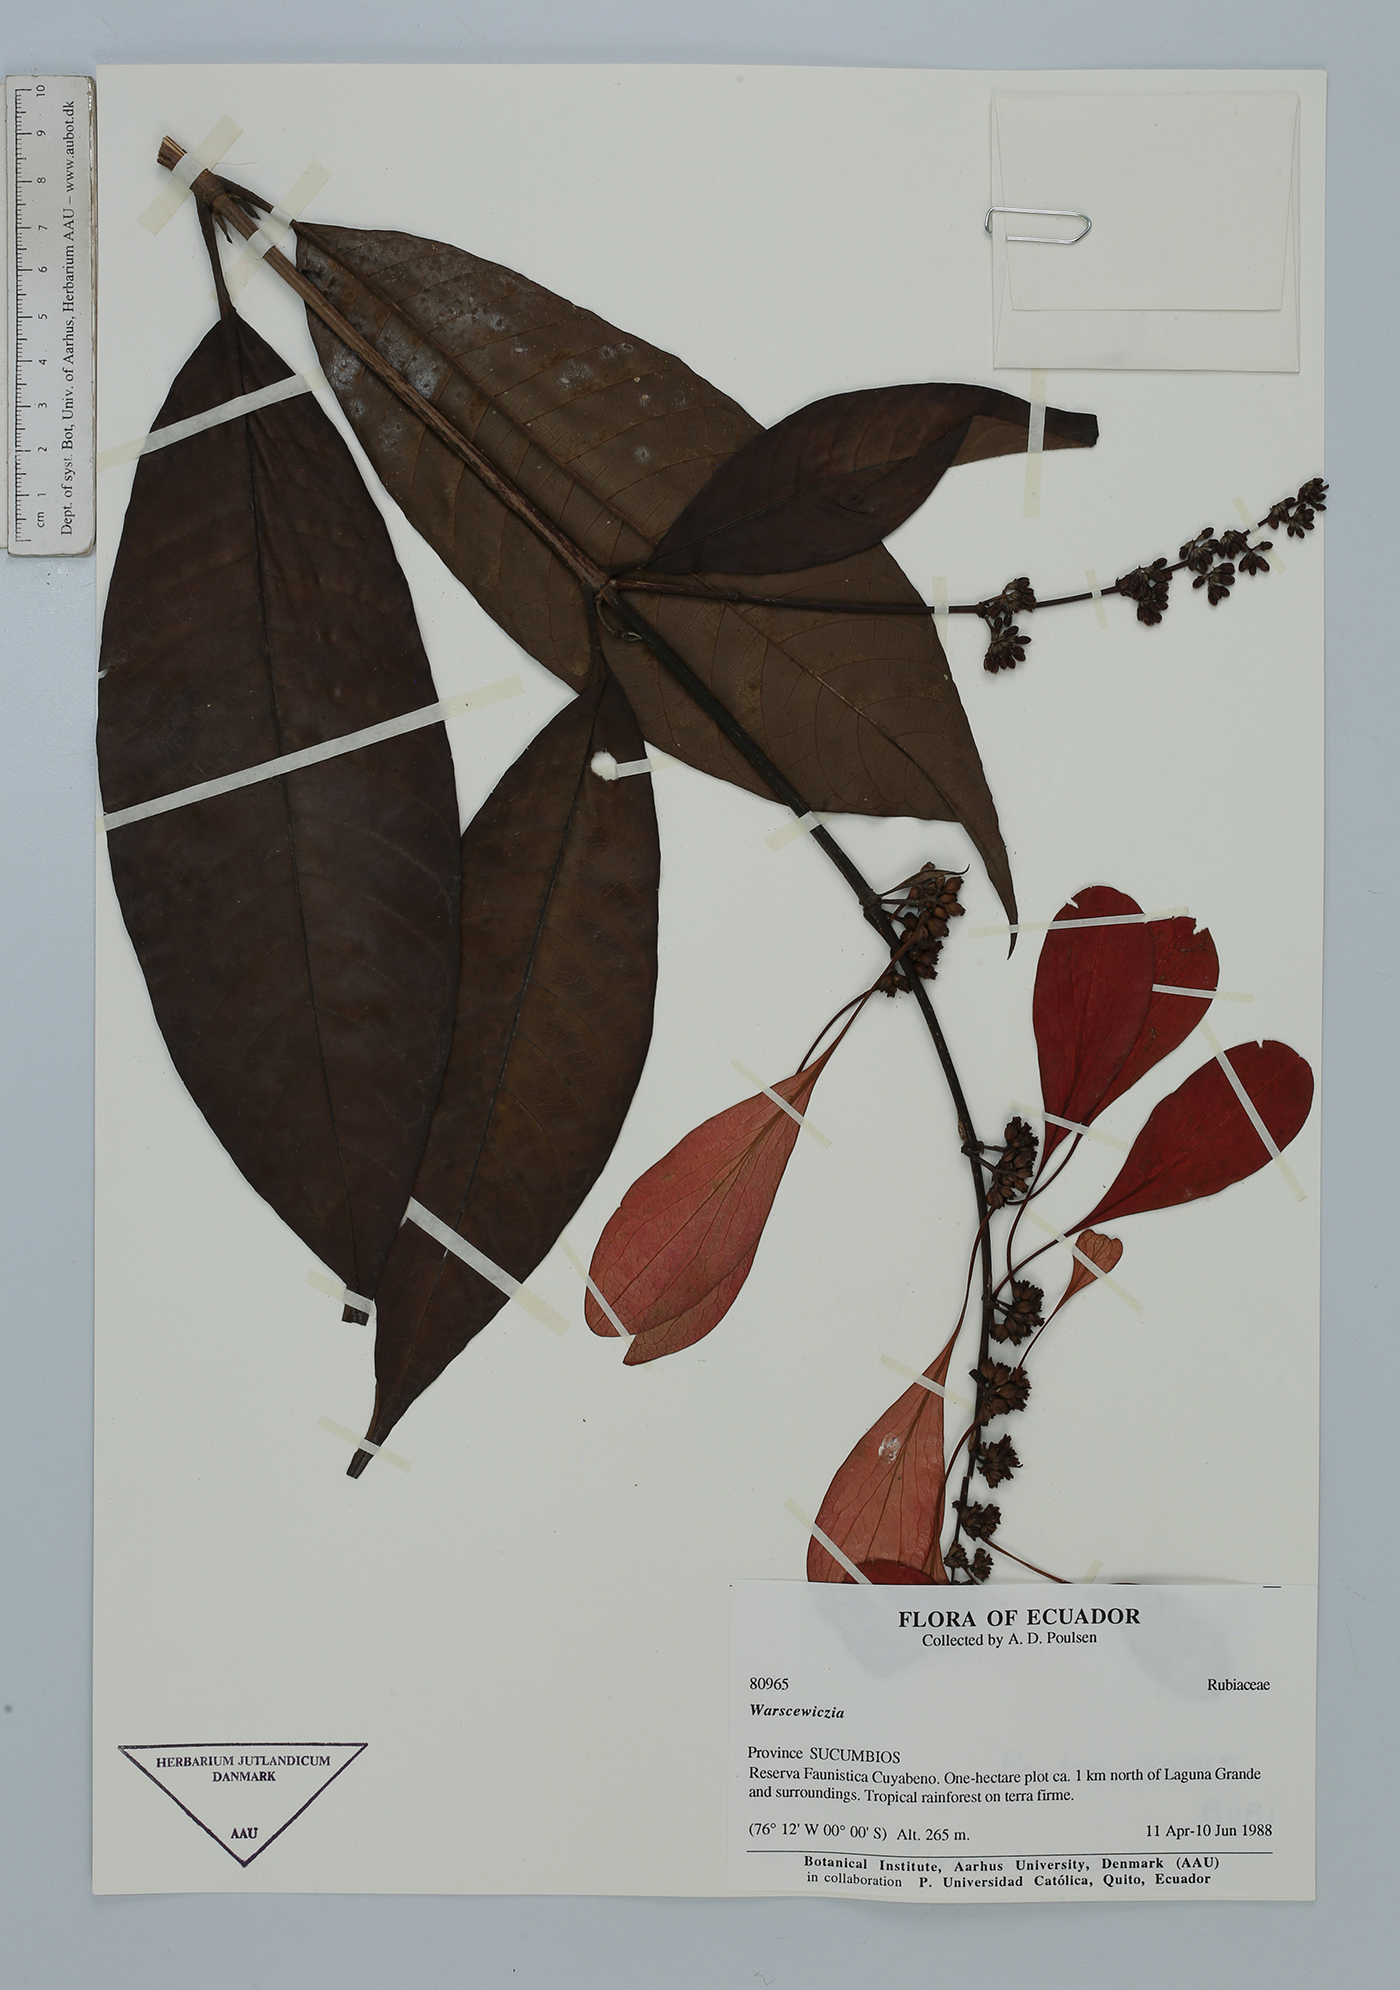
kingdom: Plantae
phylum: Tracheophyta
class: Magnoliopsida
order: Gentianales
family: Rubiaceae
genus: Warszewiczia
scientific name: Warszewiczia
